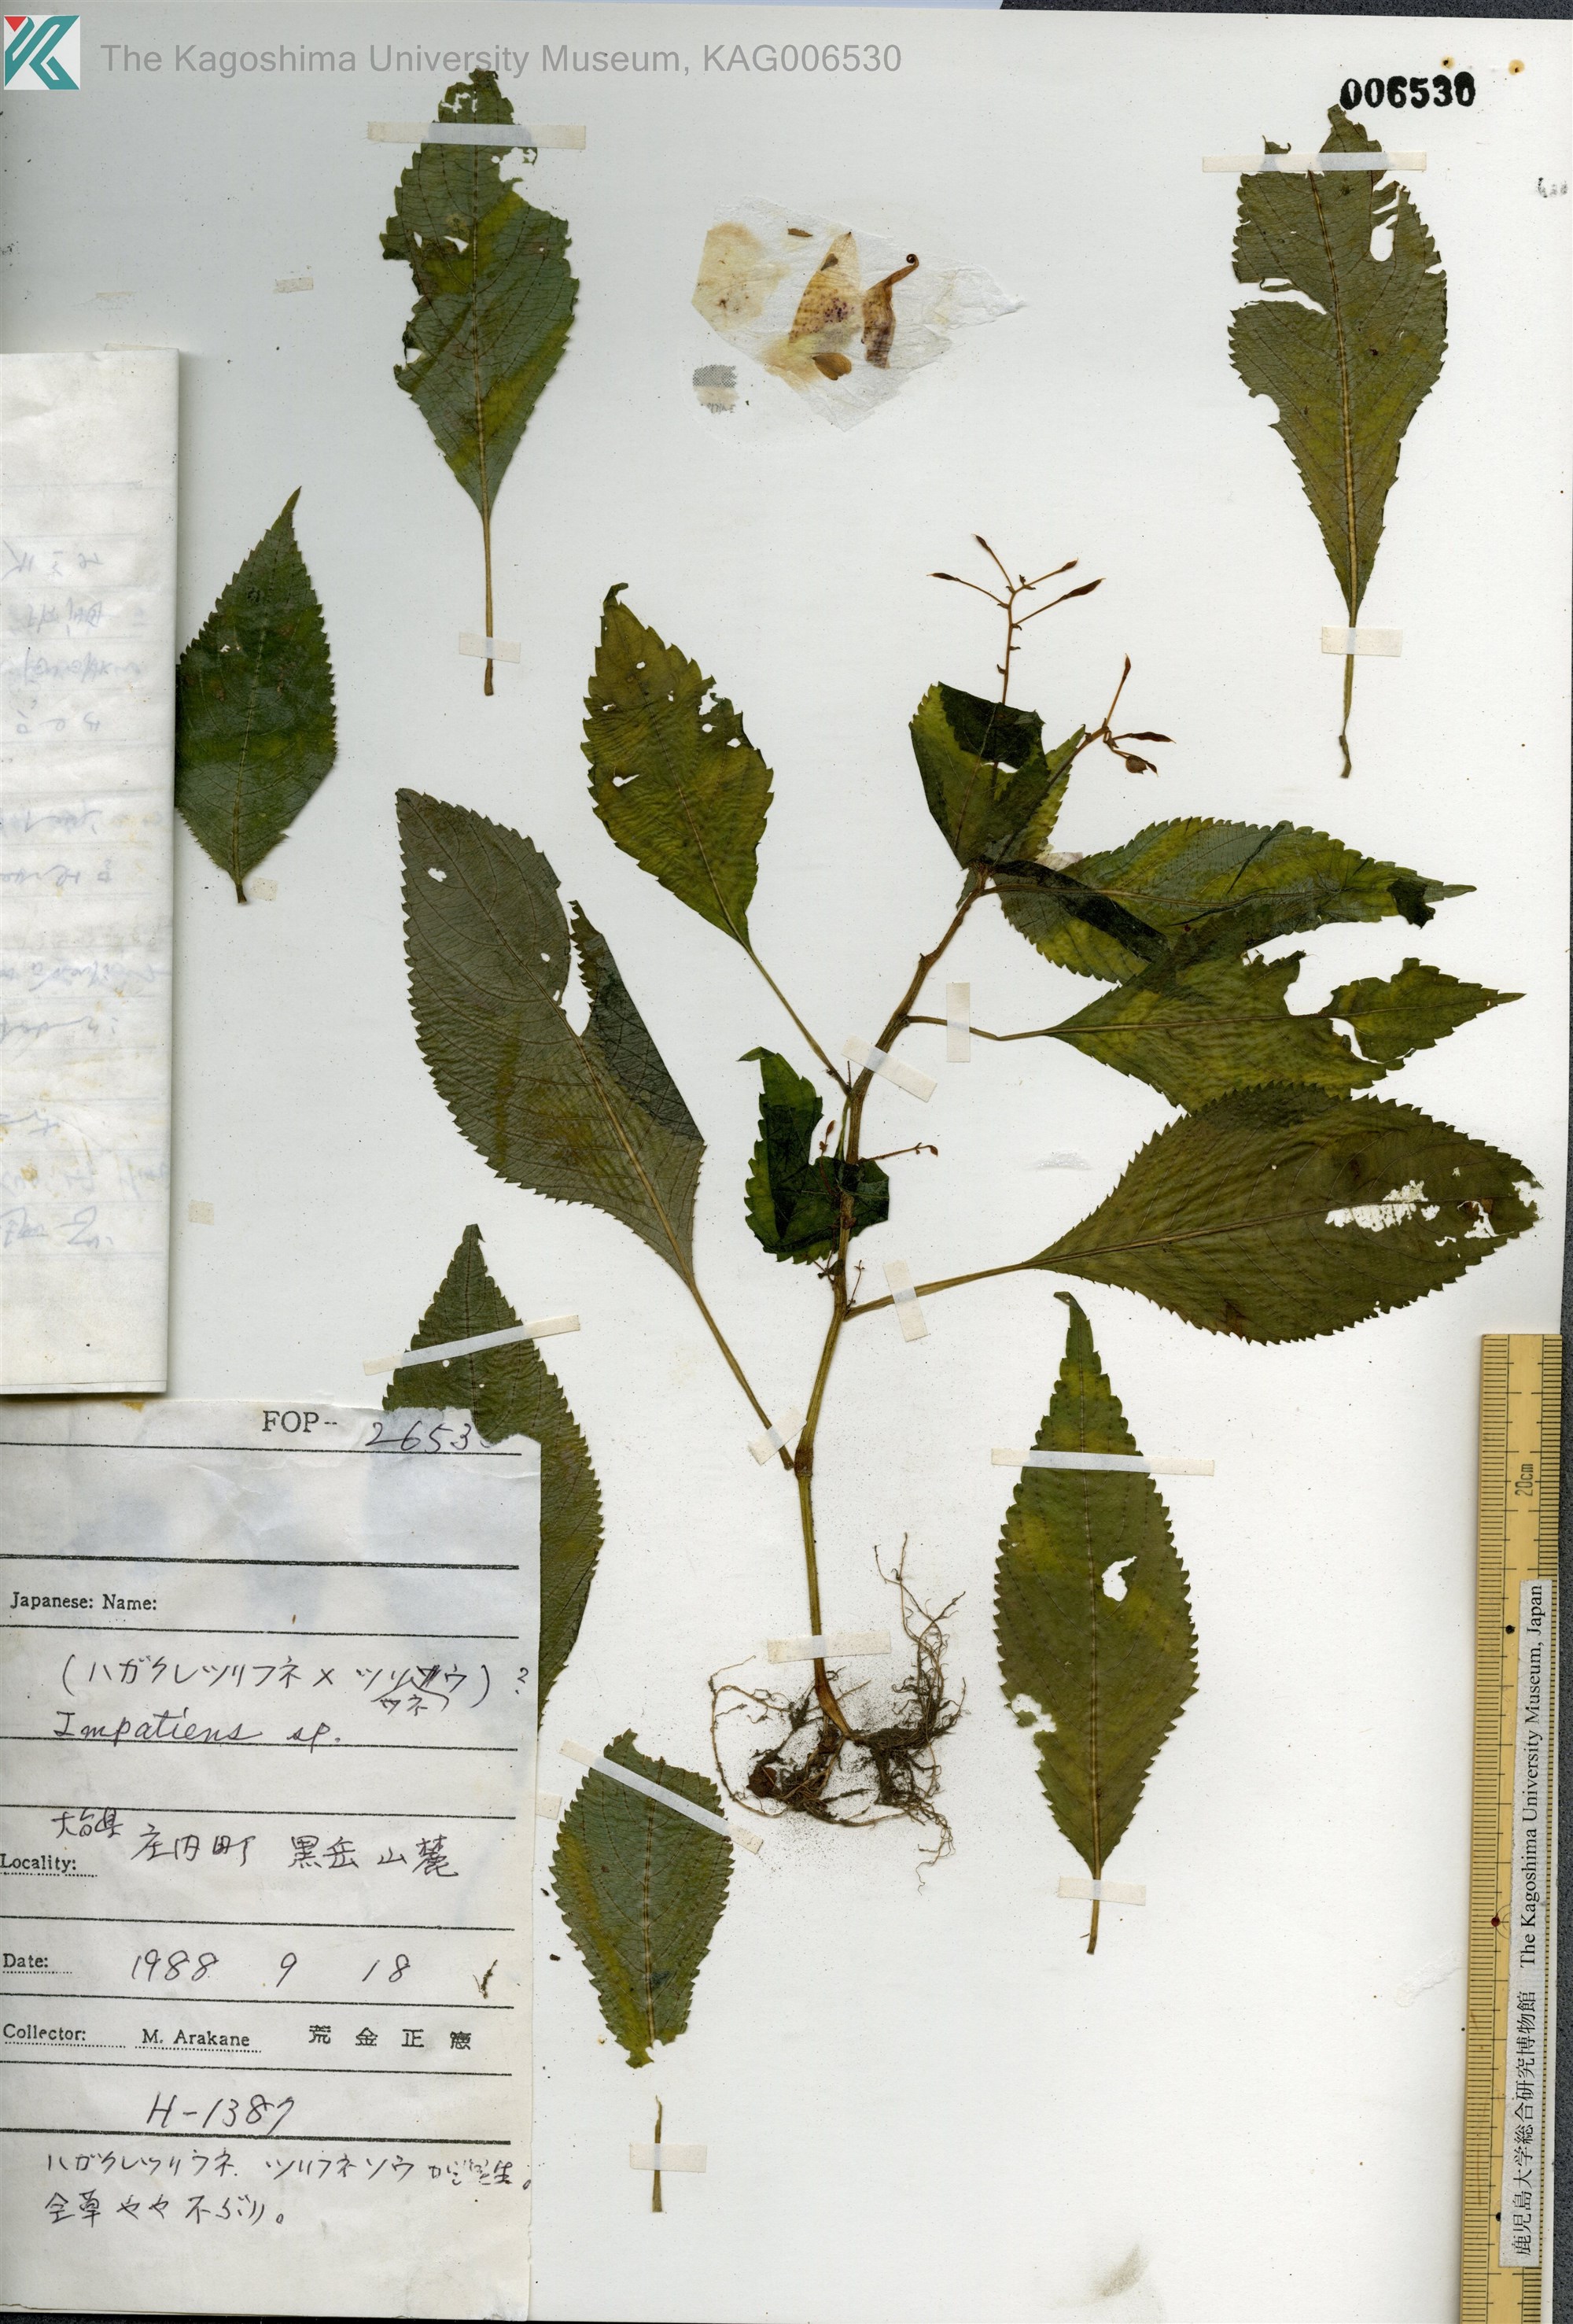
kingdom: Plantae
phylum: Tracheophyta
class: Magnoliopsida
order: Ericales
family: Balsaminaceae
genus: Impatiens
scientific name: Impatiens
